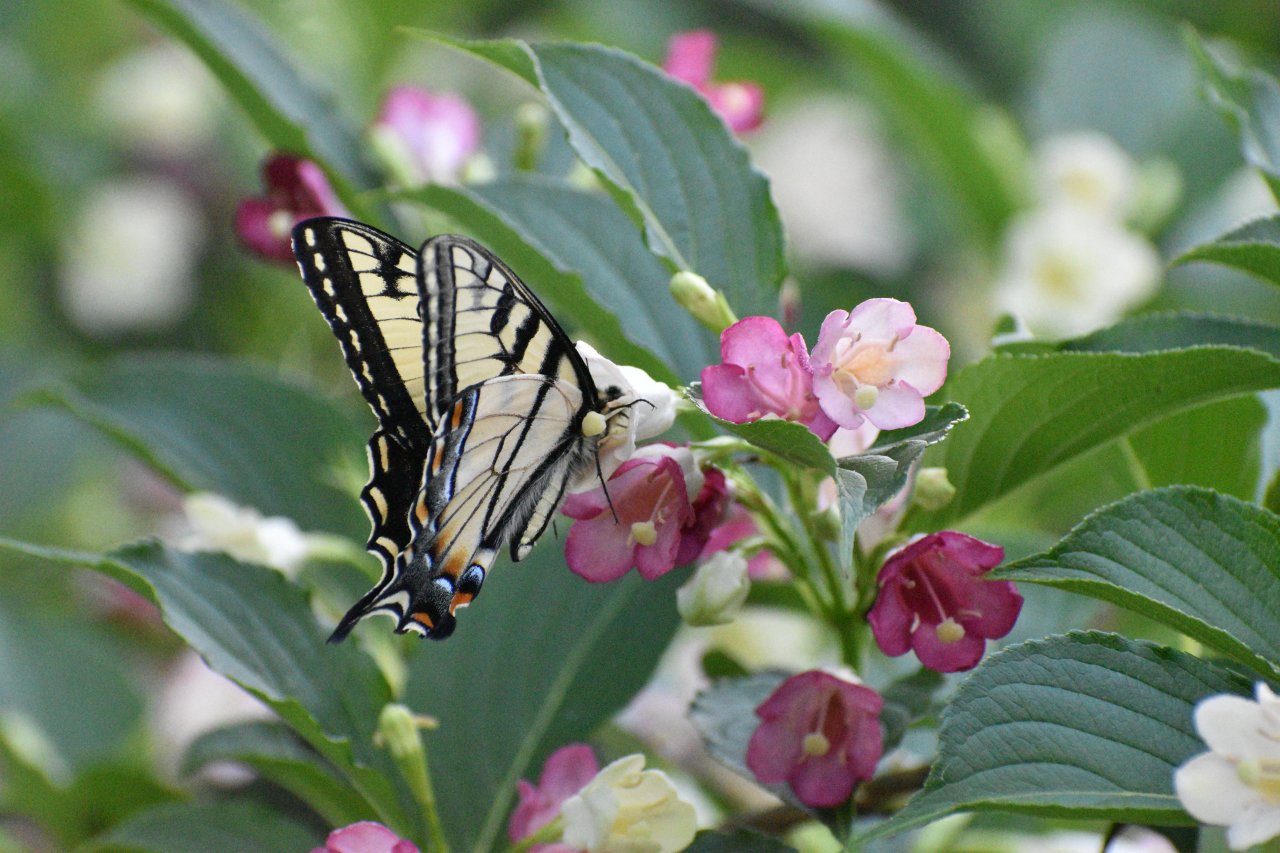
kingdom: Animalia
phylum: Arthropoda
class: Insecta
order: Lepidoptera
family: Papilionidae
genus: Pterourus
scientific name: Pterourus canadensis
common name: Canadian Tiger Swallowtail
